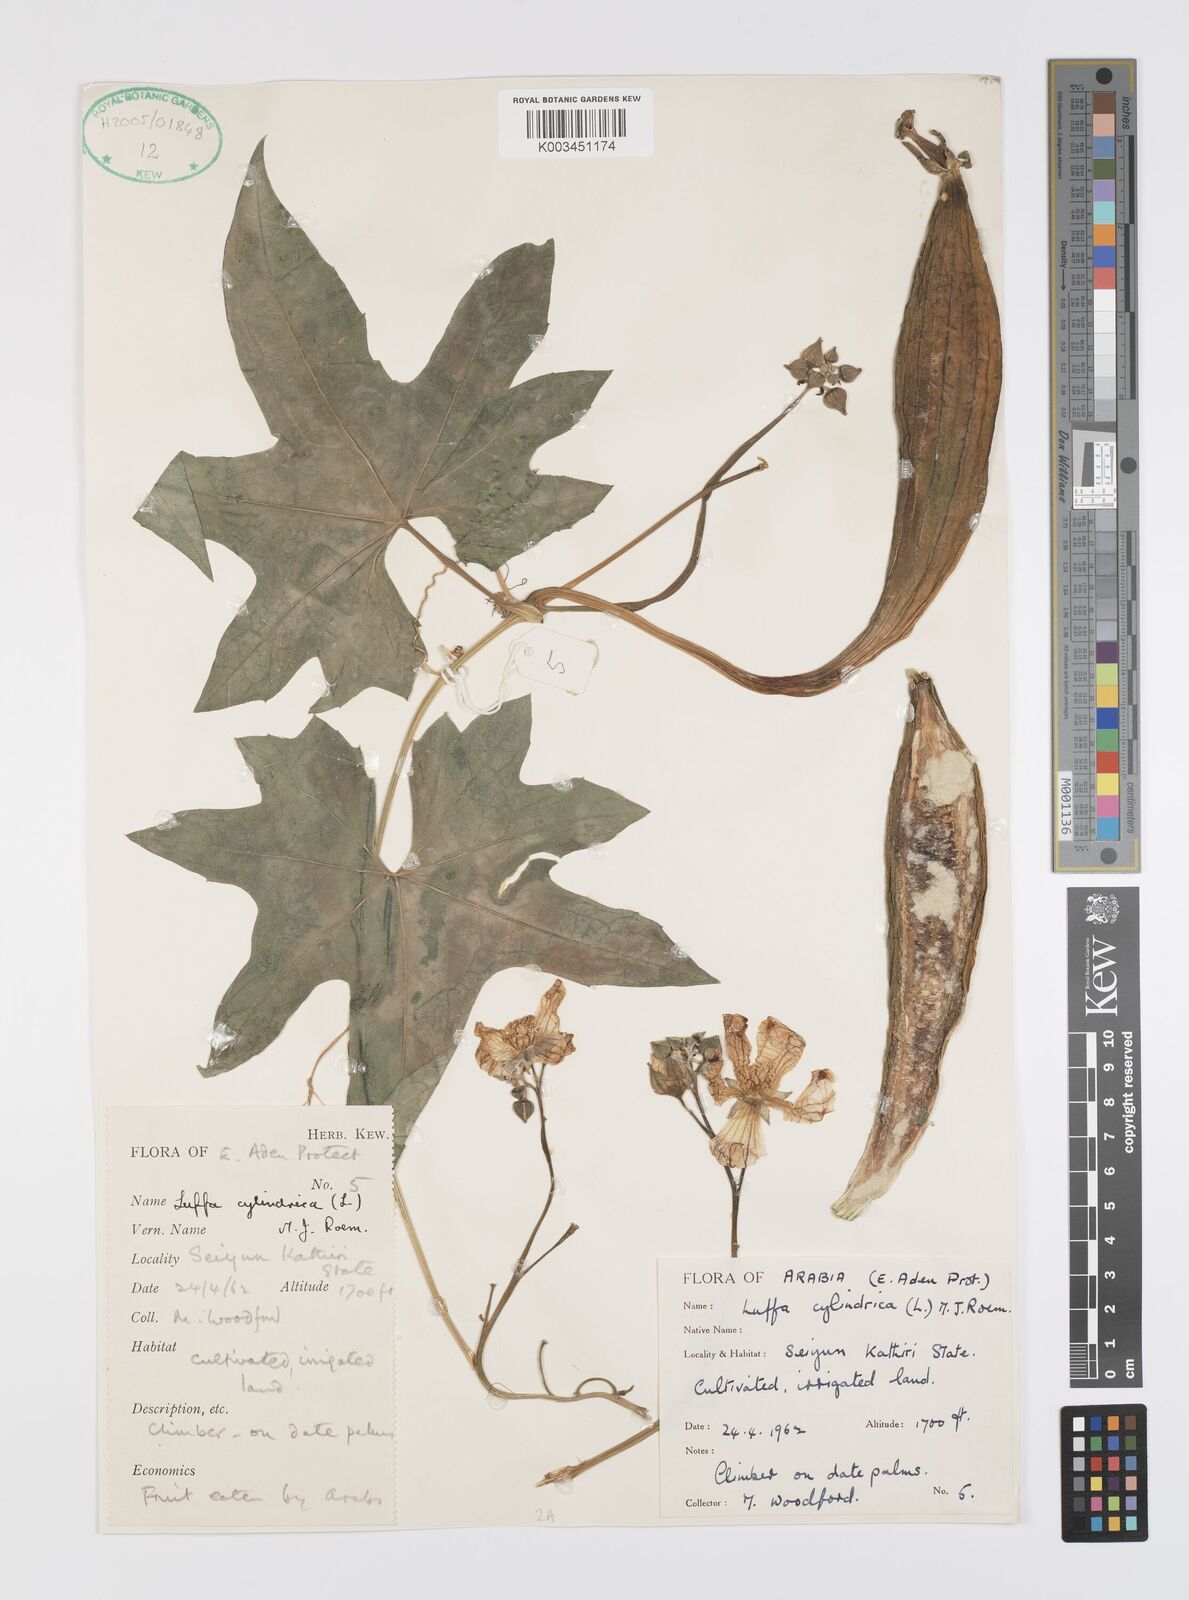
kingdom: Plantae
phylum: Tracheophyta
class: Magnoliopsida
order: Cucurbitales
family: Cucurbitaceae
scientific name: Cucurbitaceae
